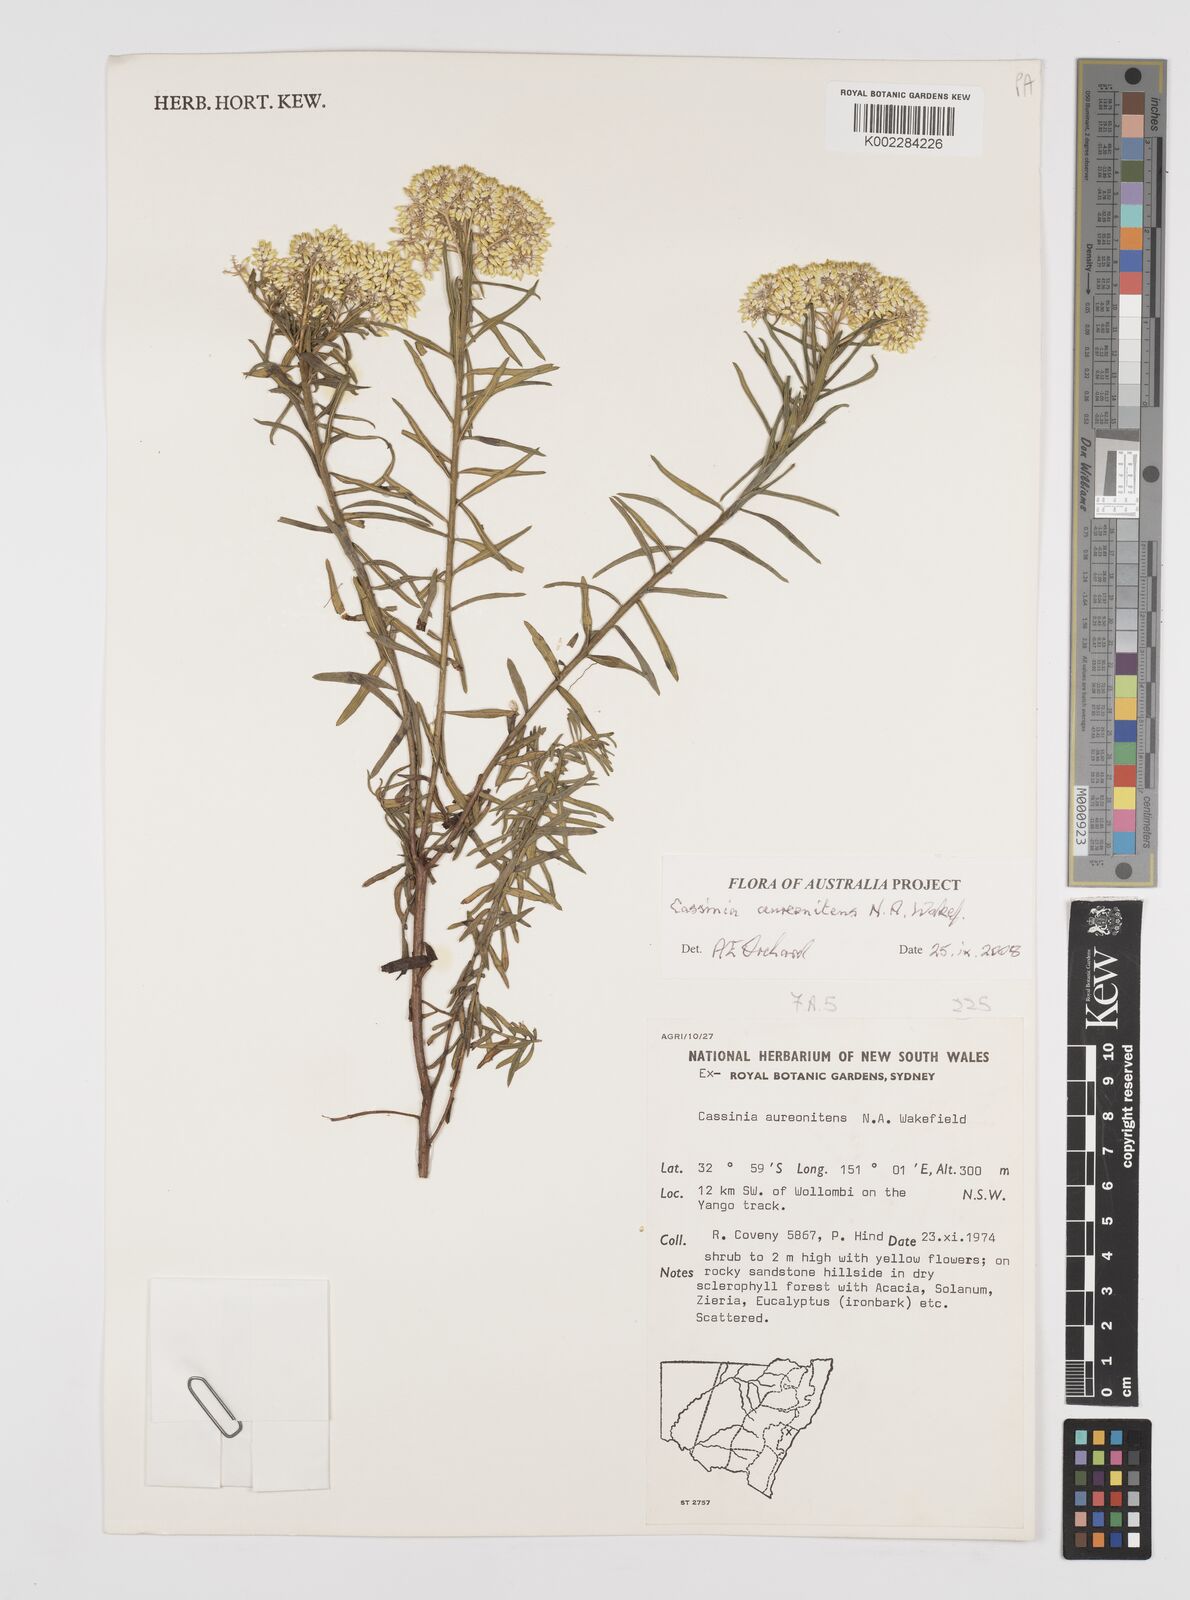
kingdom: Plantae
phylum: Tracheophyta
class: Magnoliopsida
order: Asterales
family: Asteraceae
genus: Cassinia
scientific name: Cassinia aureonitens
